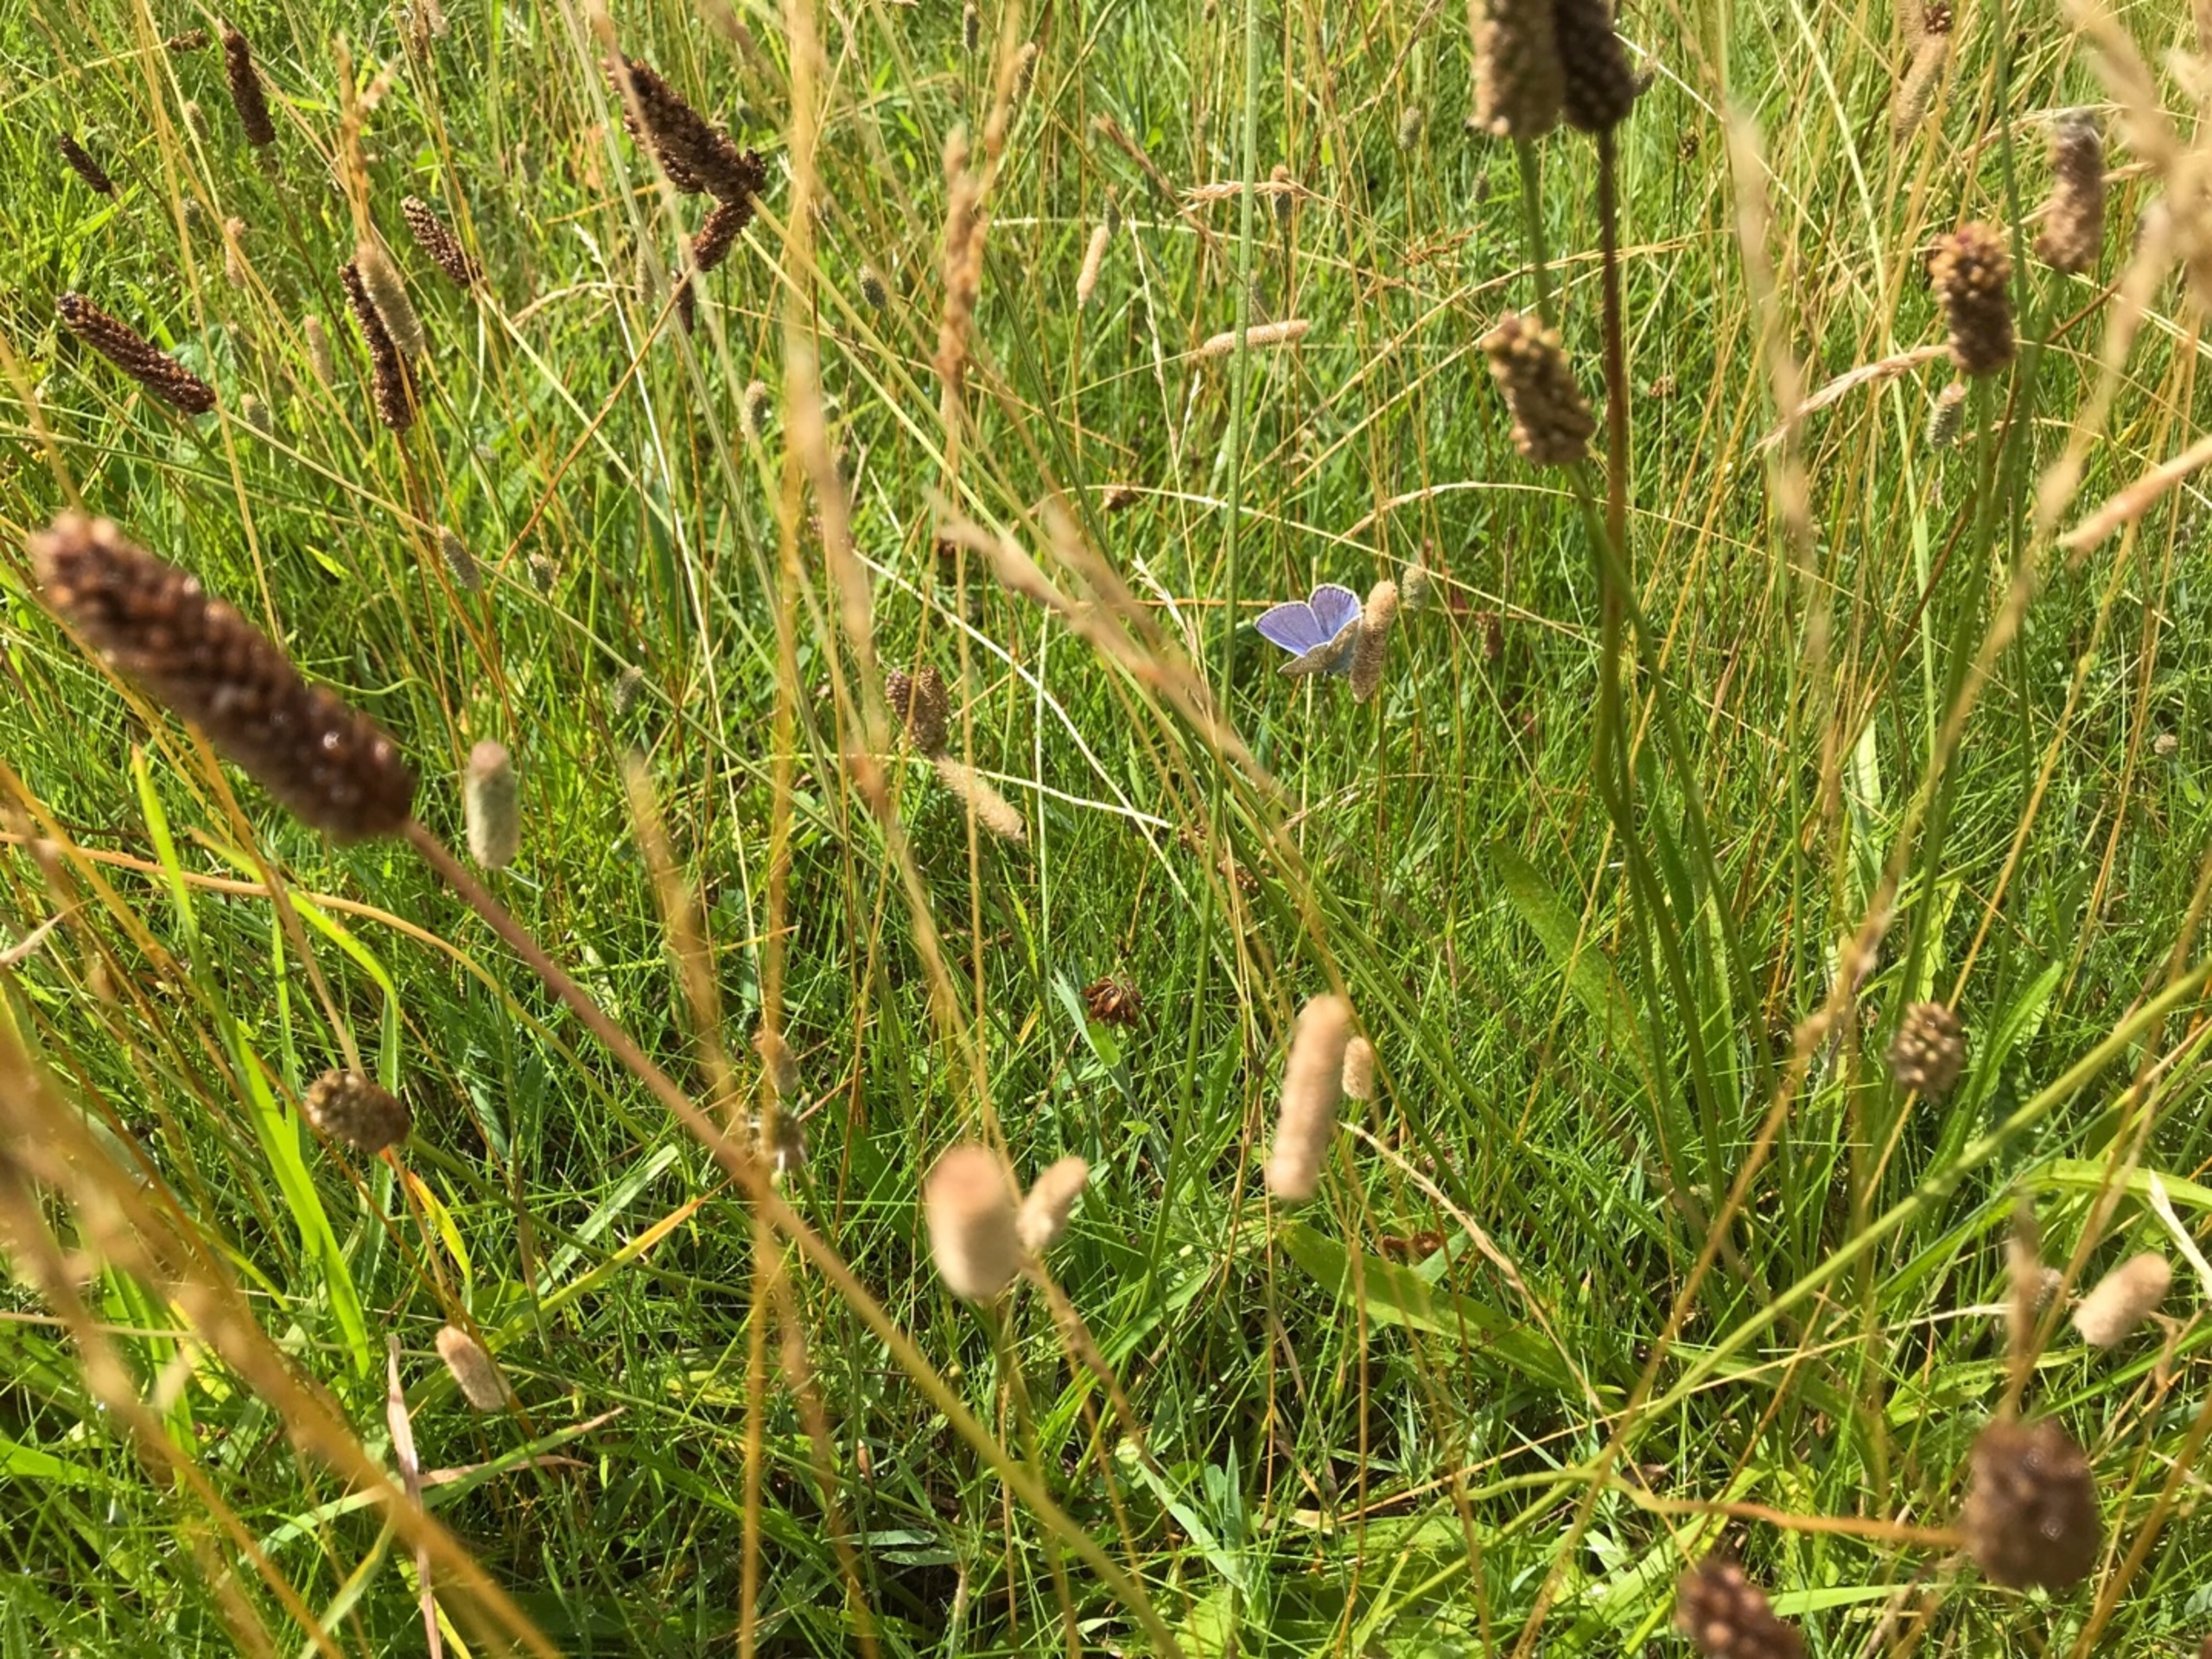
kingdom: Animalia
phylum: Arthropoda
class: Insecta
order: Lepidoptera
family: Lycaenidae
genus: Polyommatus
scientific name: Polyommatus icarus
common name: Almindelig blåfugl
